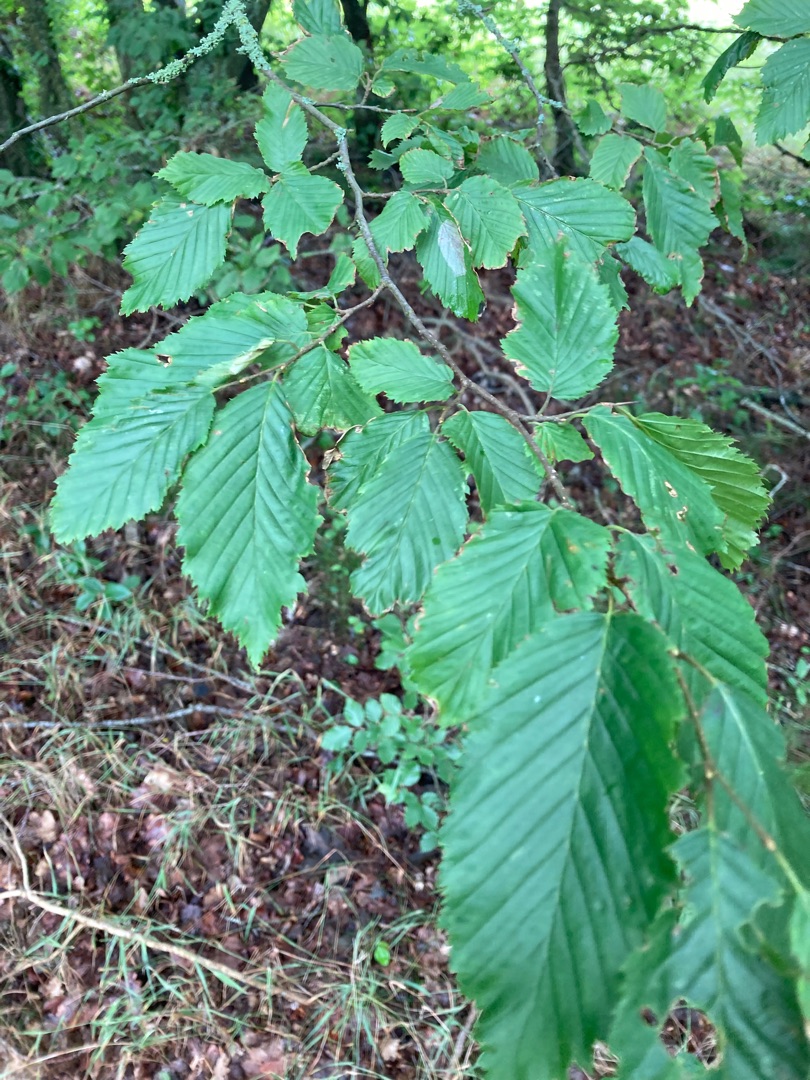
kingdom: Plantae
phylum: Tracheophyta
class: Magnoliopsida
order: Fagales
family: Betulaceae
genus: Carpinus
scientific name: Carpinus betulus
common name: Avnbøg
